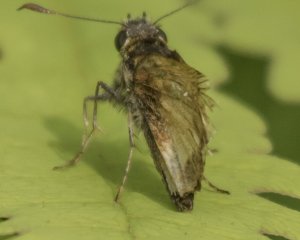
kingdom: Animalia
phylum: Arthropoda
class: Insecta
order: Lepidoptera
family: Hesperiidae
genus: Lon
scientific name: Lon hobomok
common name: Hobomok Skipper
